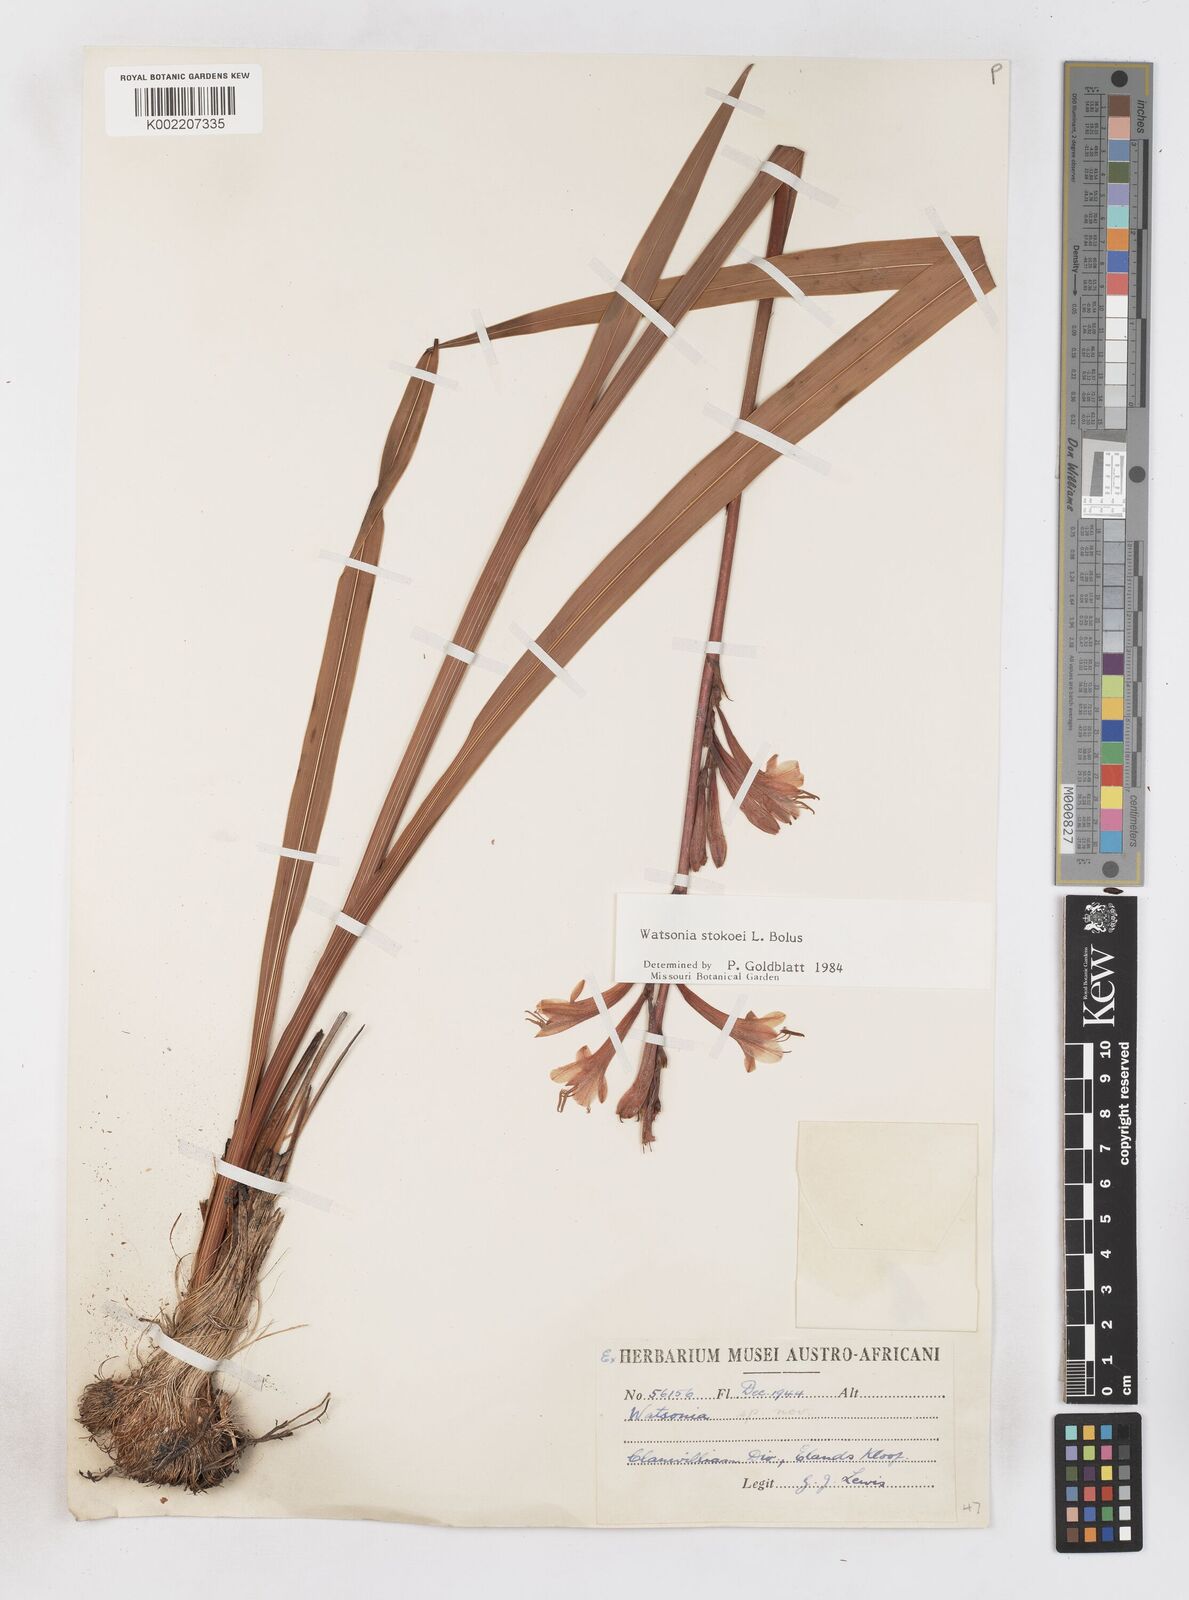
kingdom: Plantae
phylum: Tracheophyta
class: Liliopsida
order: Asparagales
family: Iridaceae
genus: Watsonia
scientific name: Watsonia stokoei
